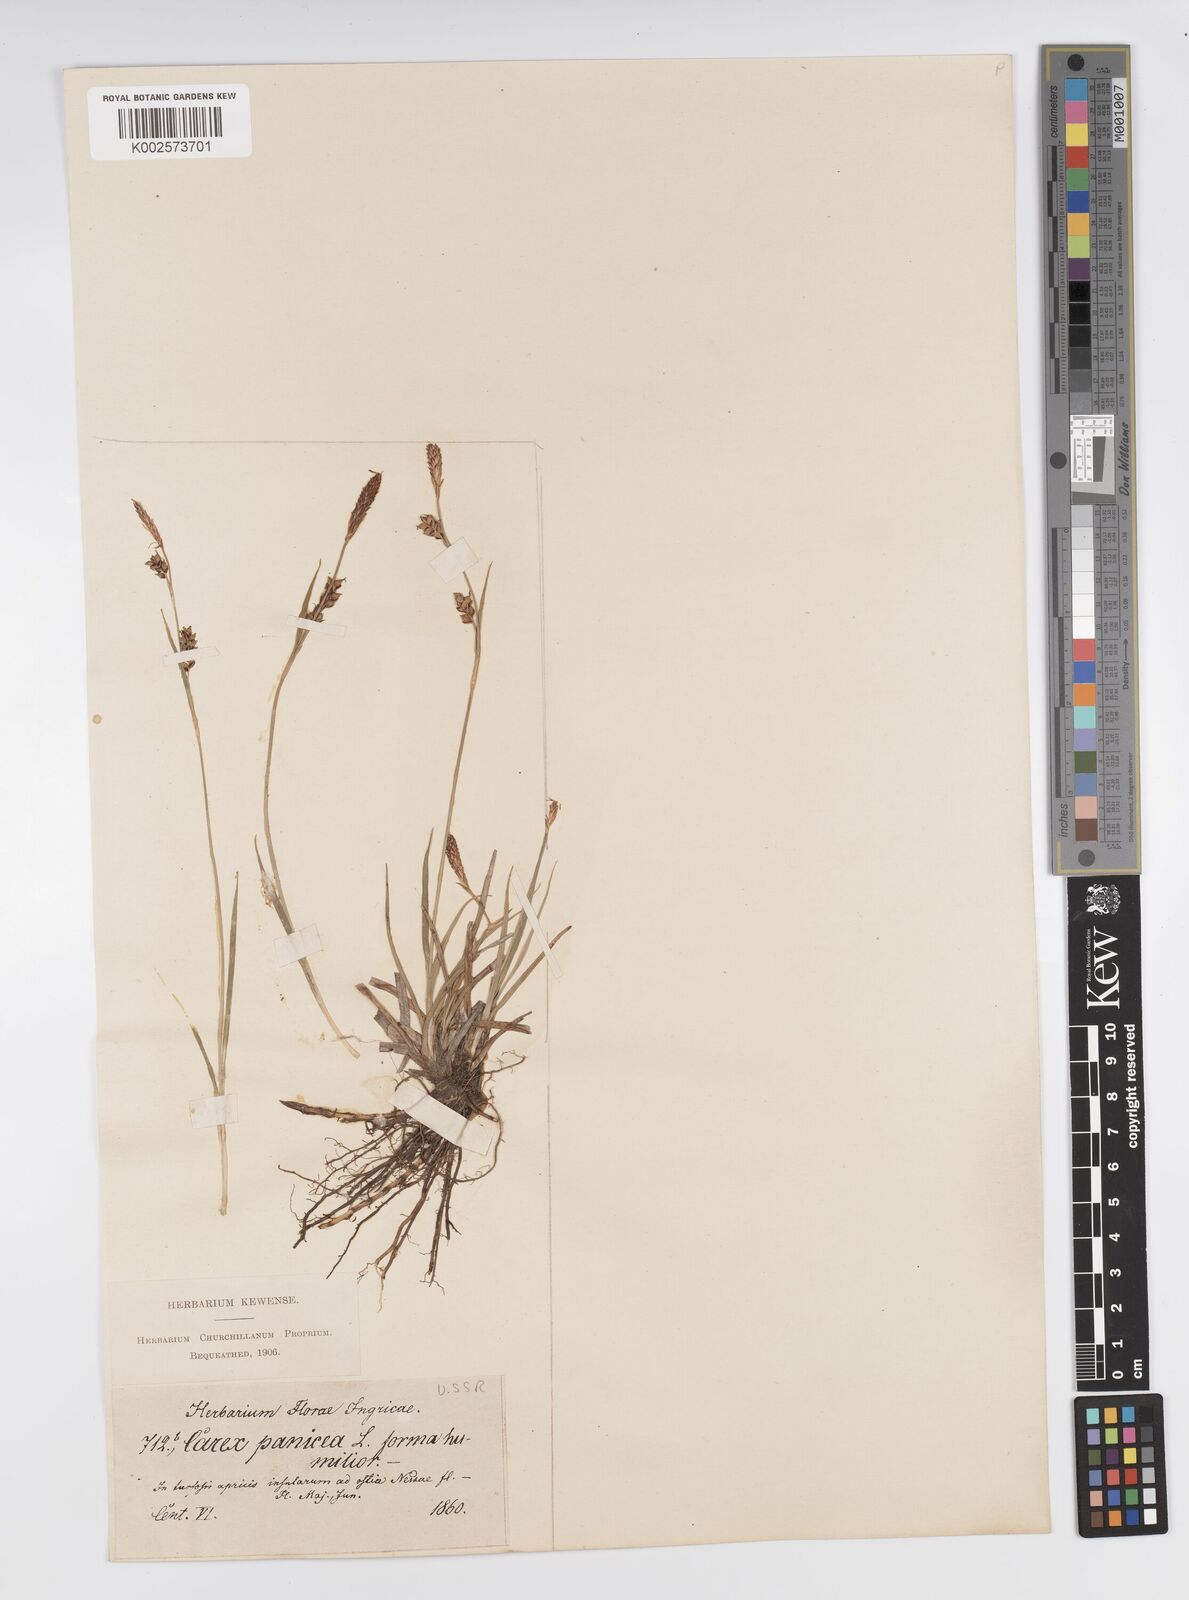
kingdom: Plantae
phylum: Tracheophyta
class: Liliopsida
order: Poales
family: Cyperaceae
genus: Carex
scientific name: Carex panicea
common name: Carnation sedge
